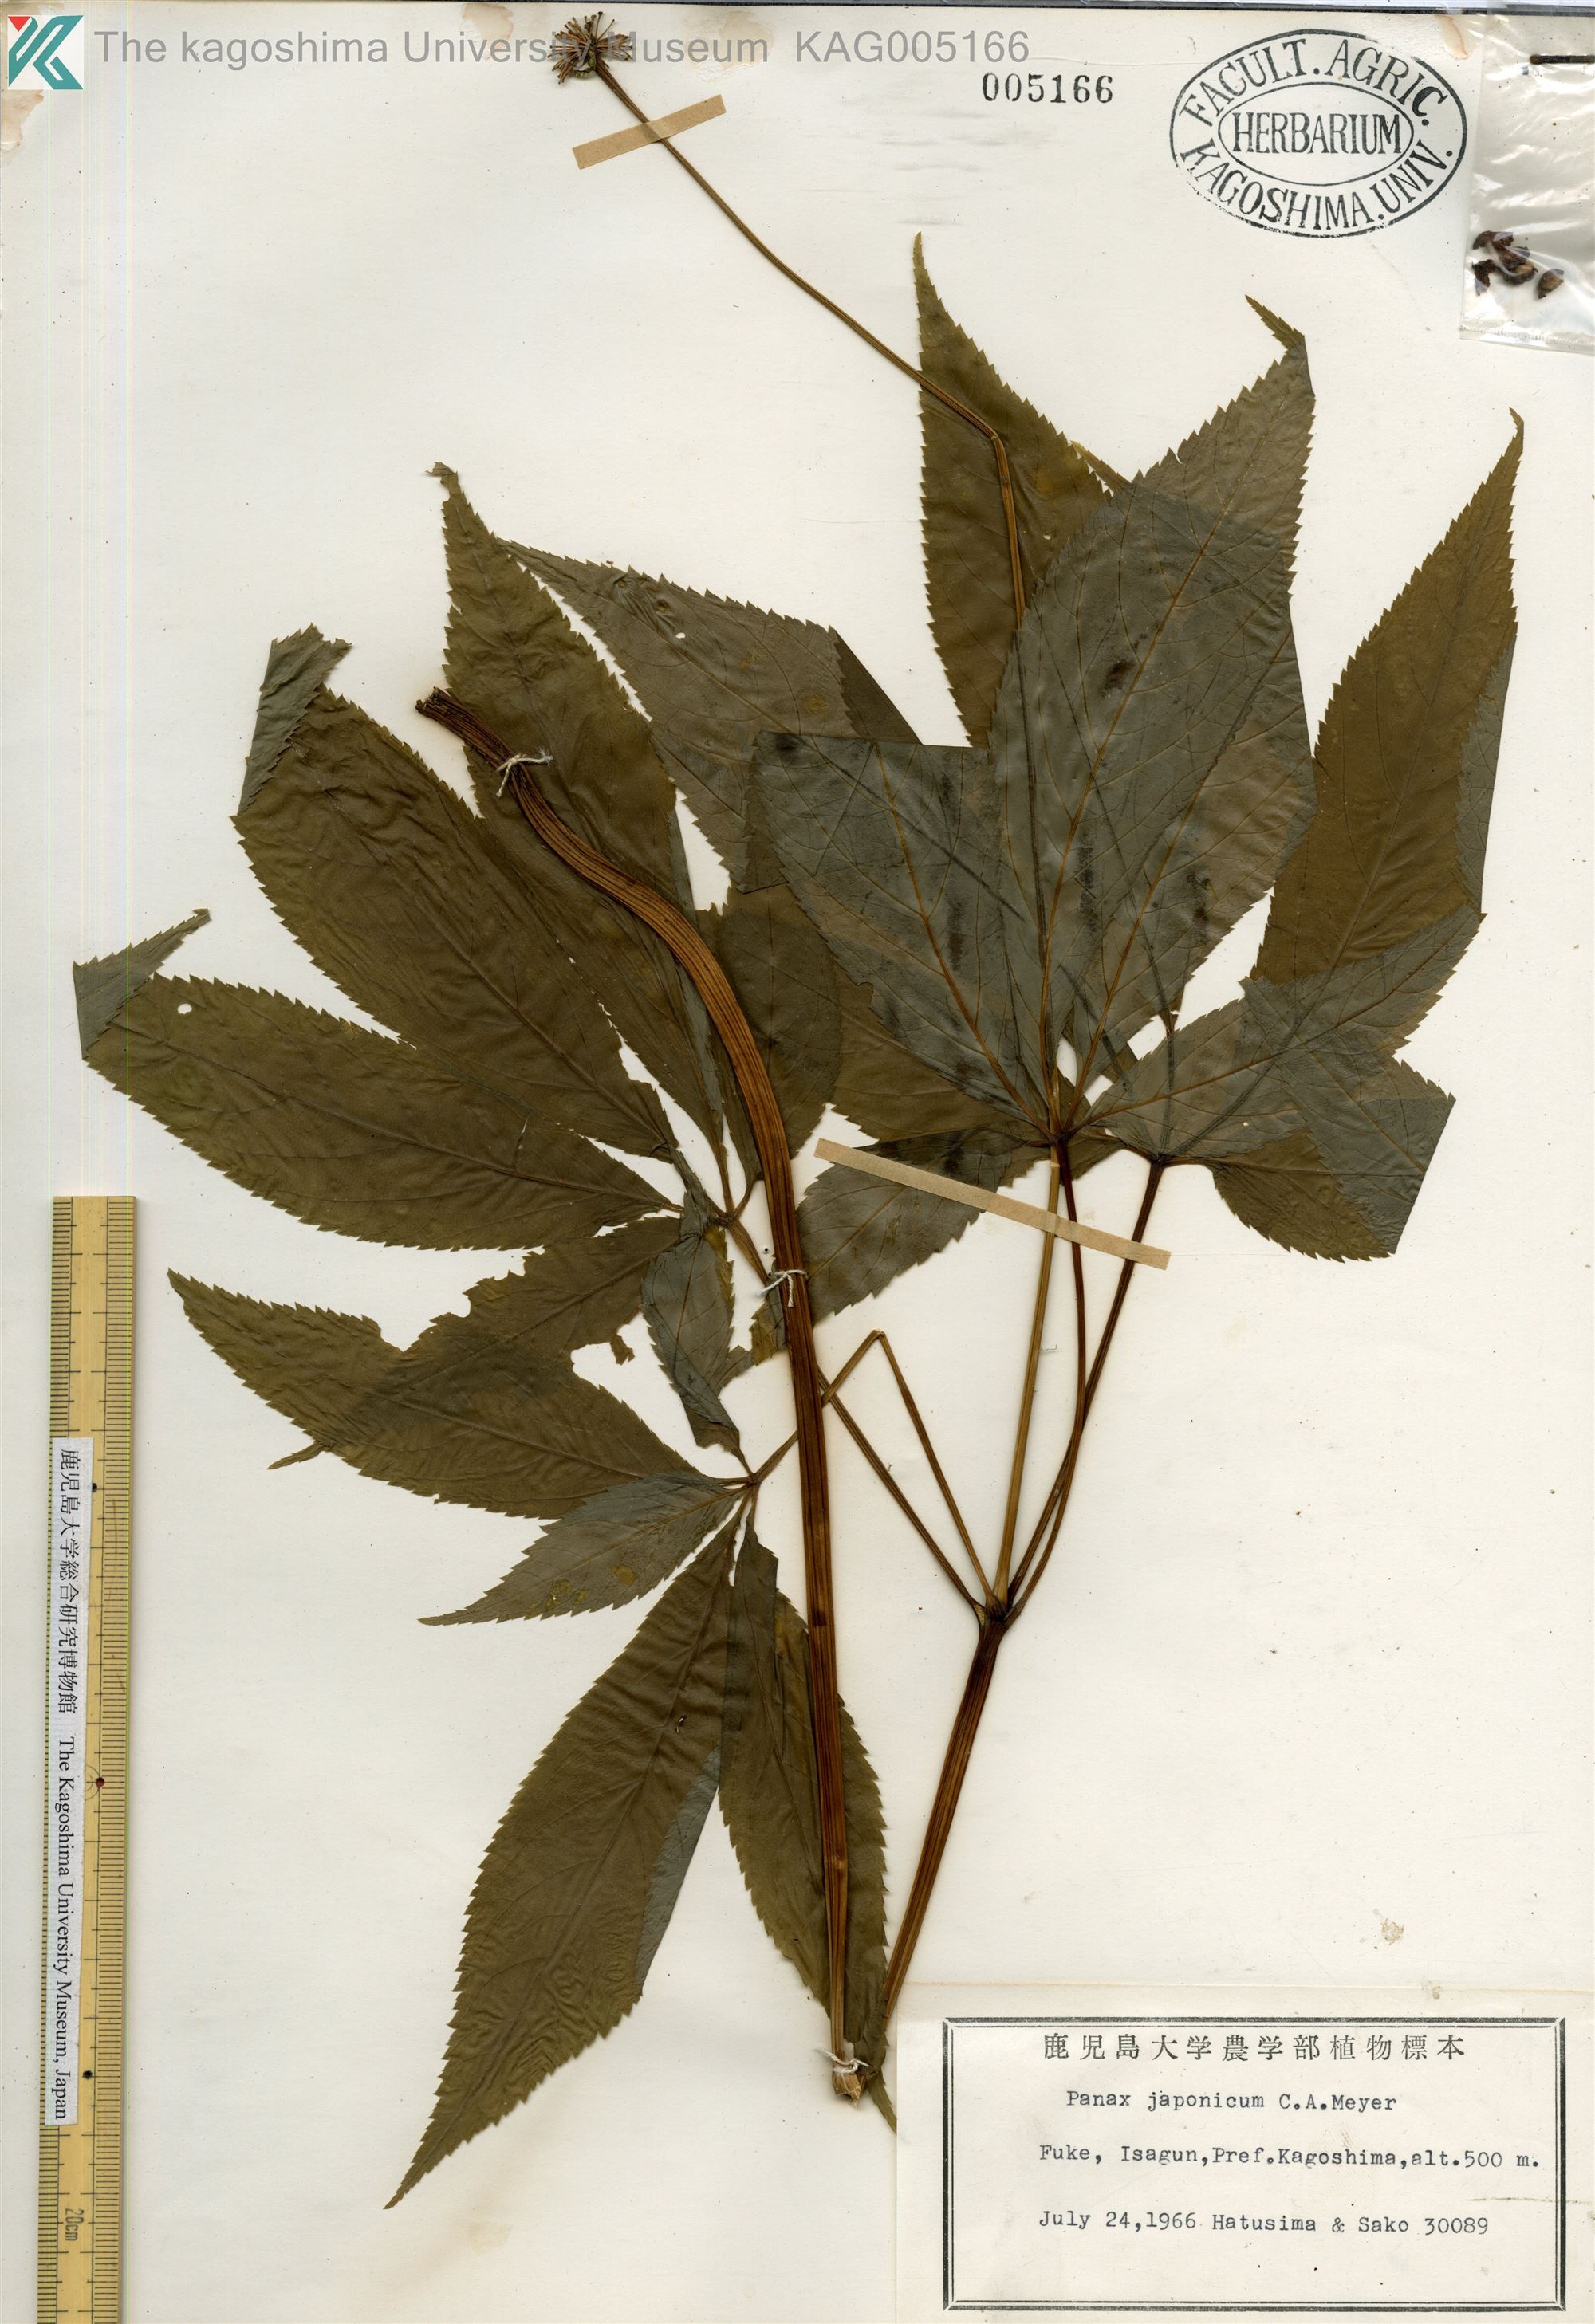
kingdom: Plantae
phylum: Tracheophyta
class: Magnoliopsida
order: Apiales
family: Araliaceae
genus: Panax
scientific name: Panax japonicus
